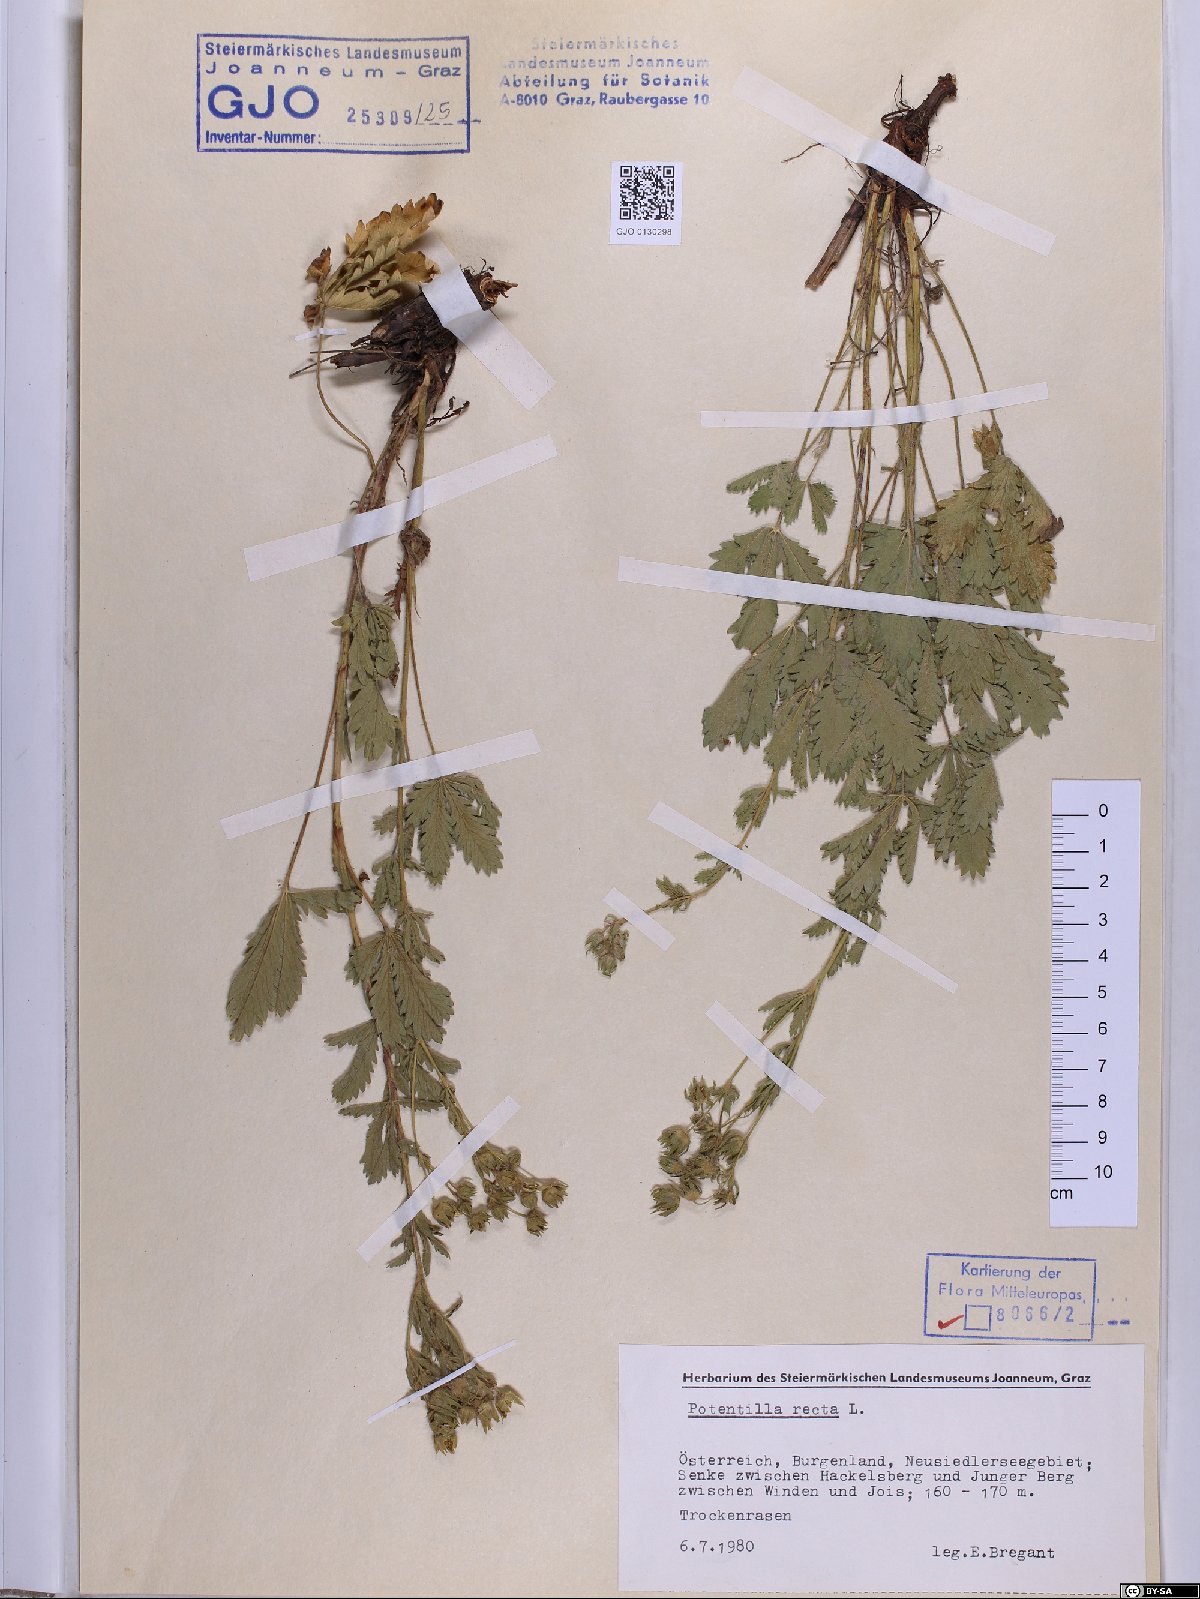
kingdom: Plantae
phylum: Tracheophyta
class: Magnoliopsida
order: Rosales
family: Rosaceae
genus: Potentilla
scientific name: Potentilla recta
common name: Sulphur cinquefoil
